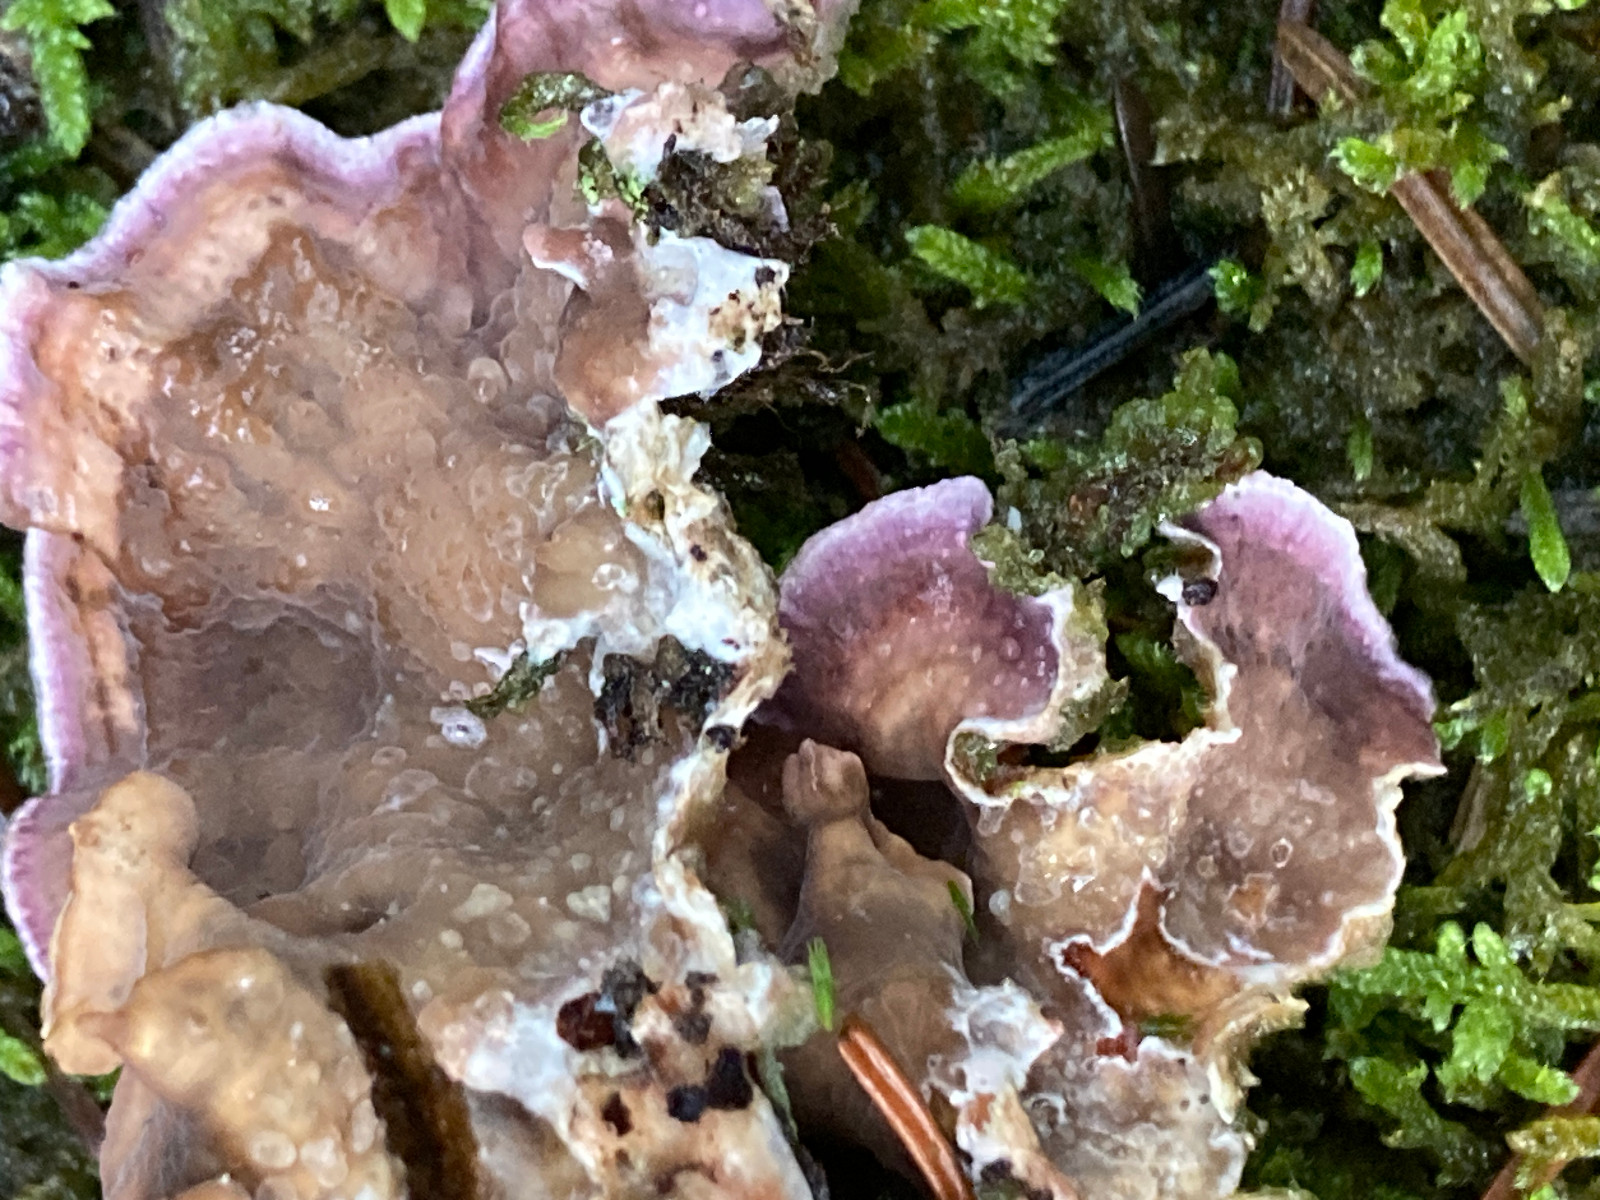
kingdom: Fungi
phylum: Basidiomycota
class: Agaricomycetes
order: Agaricales
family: Cyphellaceae
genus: Chondrostereum
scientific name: Chondrostereum purpureum
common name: purpurlædersvamp
